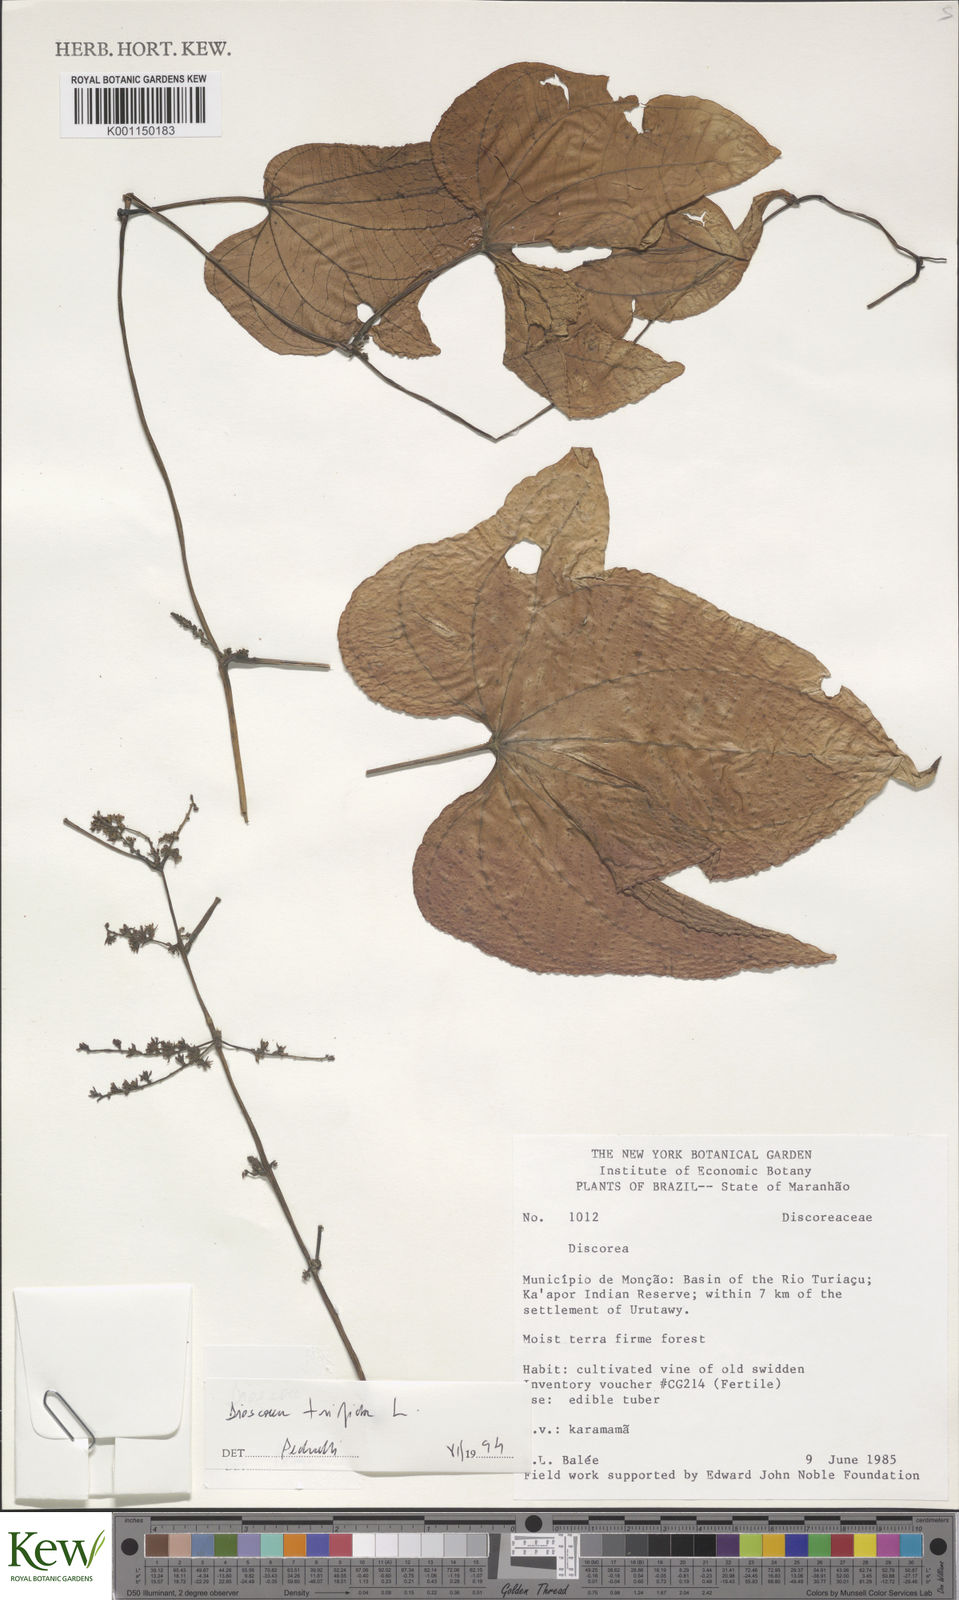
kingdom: Plantae
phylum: Tracheophyta
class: Liliopsida
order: Dioscoreales
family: Dioscoreaceae
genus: Dioscorea
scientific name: Dioscorea trifida
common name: Cush-cush
